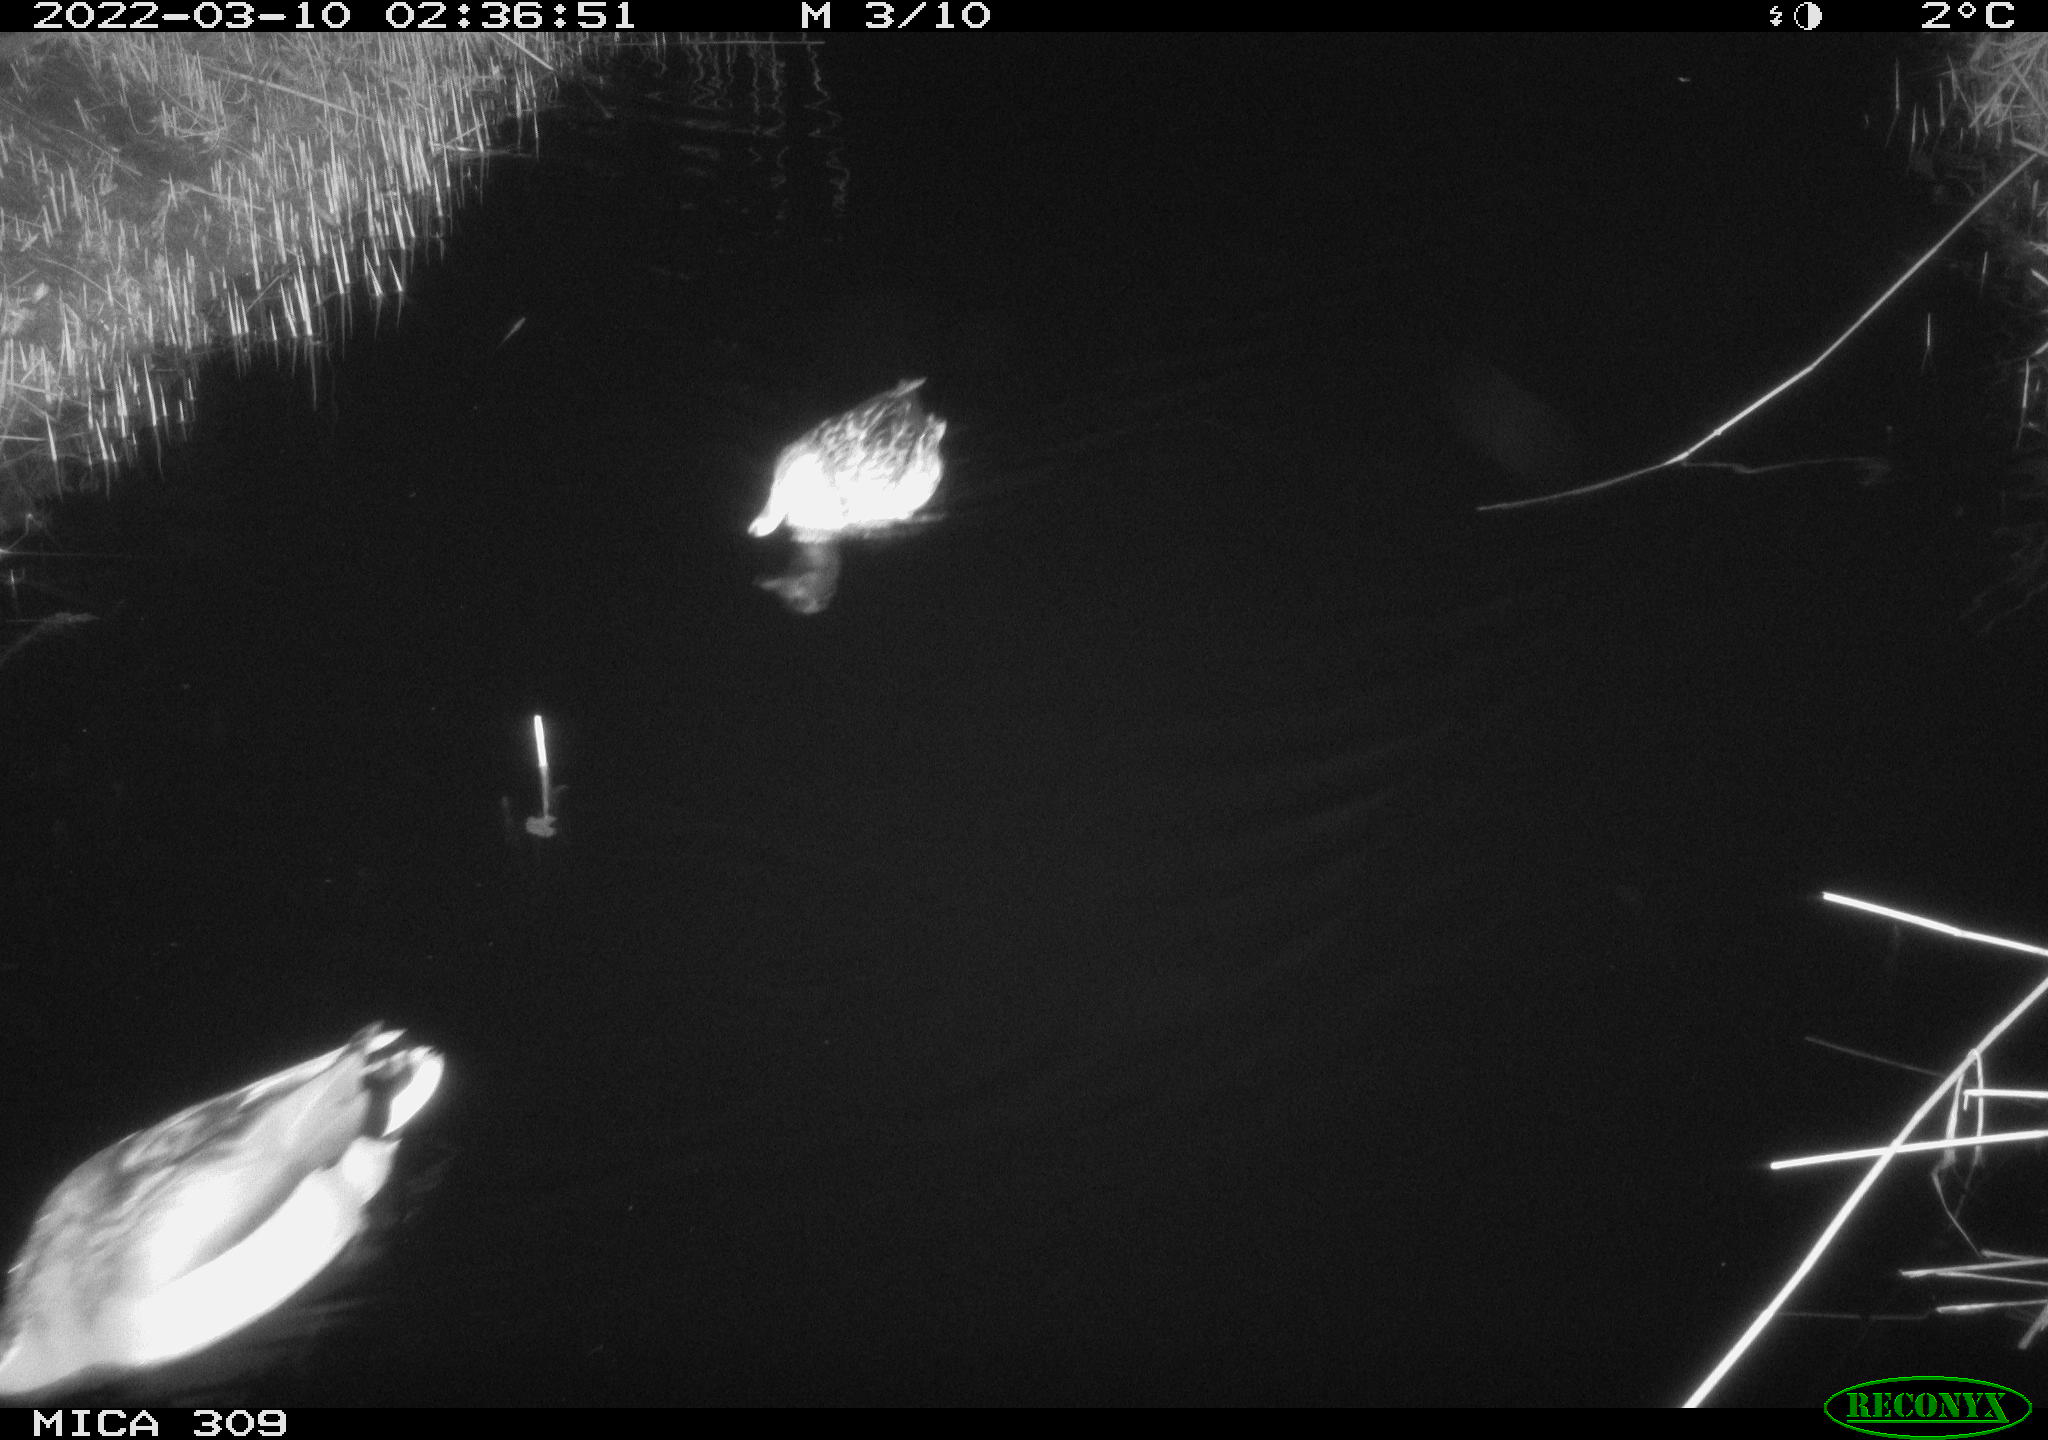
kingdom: Animalia
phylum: Chordata
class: Aves
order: Anseriformes
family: Anatidae
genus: Anas
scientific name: Anas platyrhynchos
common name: Mallard
